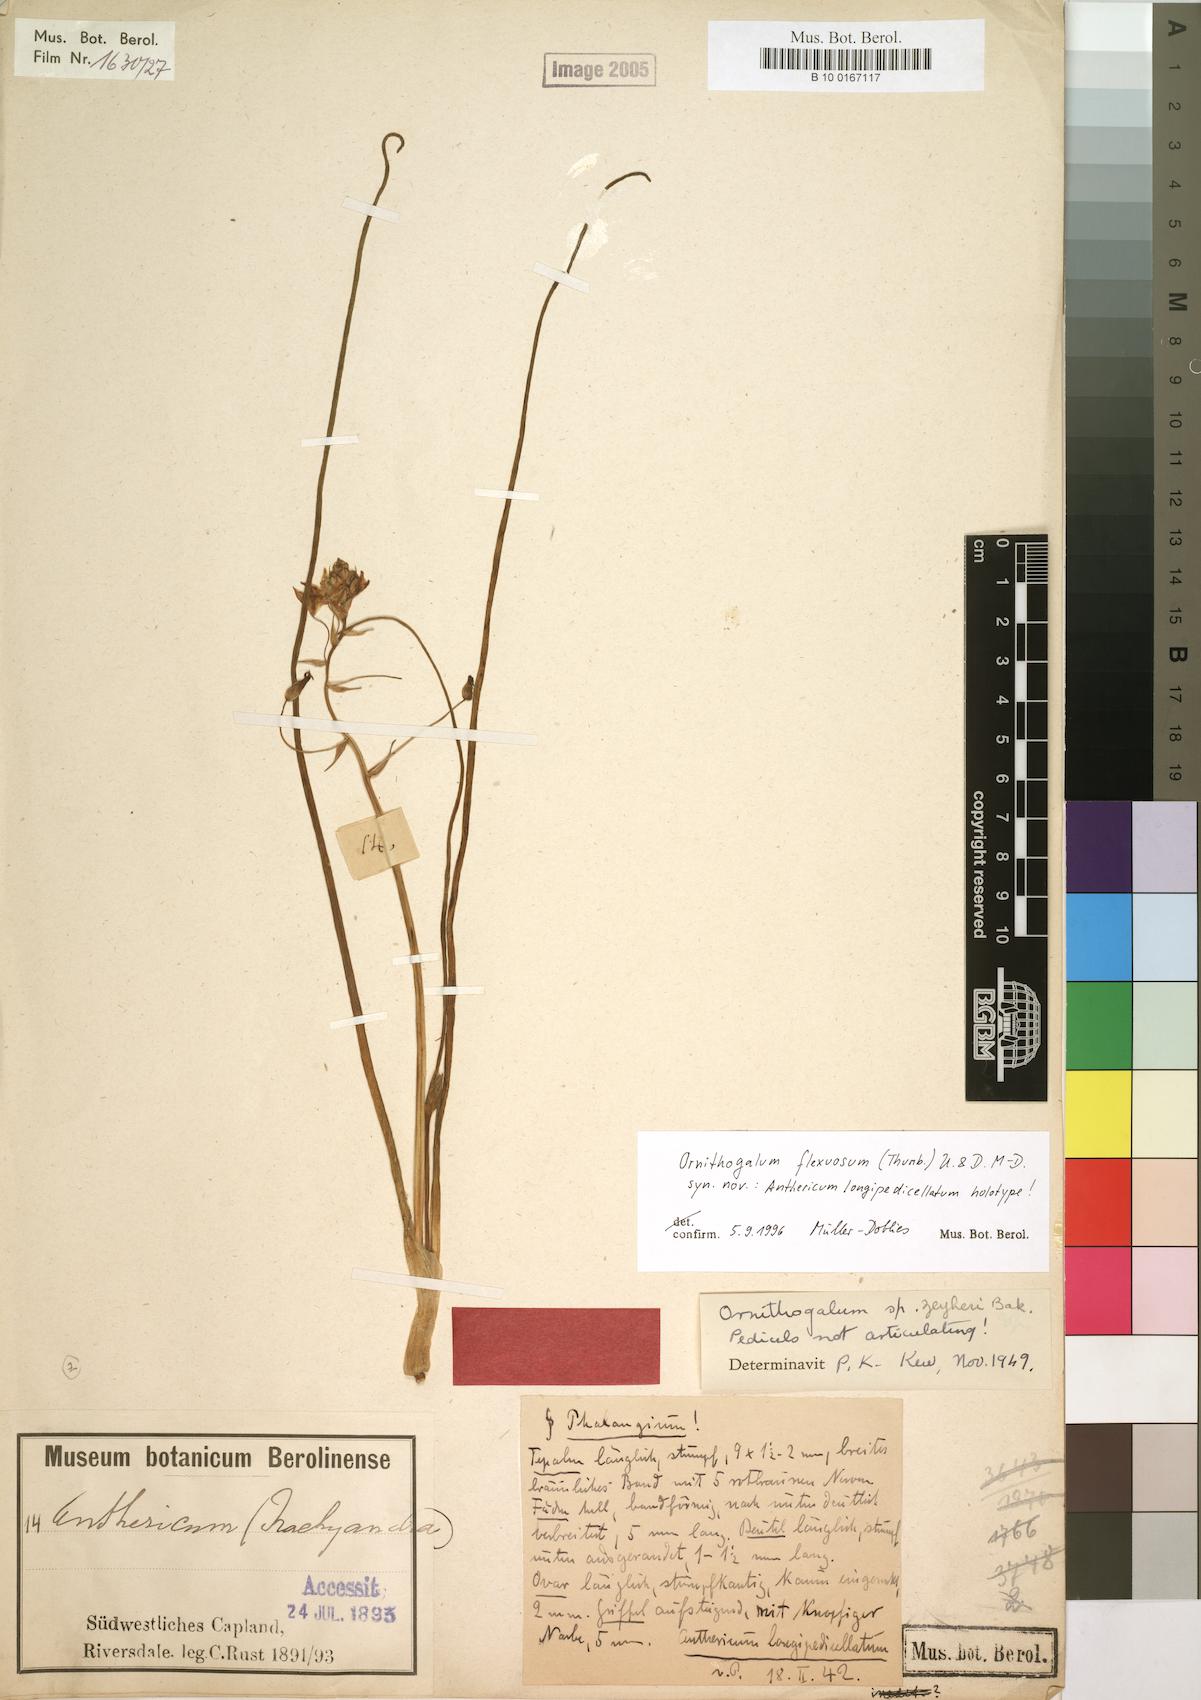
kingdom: Plantae
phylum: Tracheophyta
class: Liliopsida
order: Asparagales
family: Asparagaceae
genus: Ornithogalum
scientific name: Ornithogalum flexuosum
